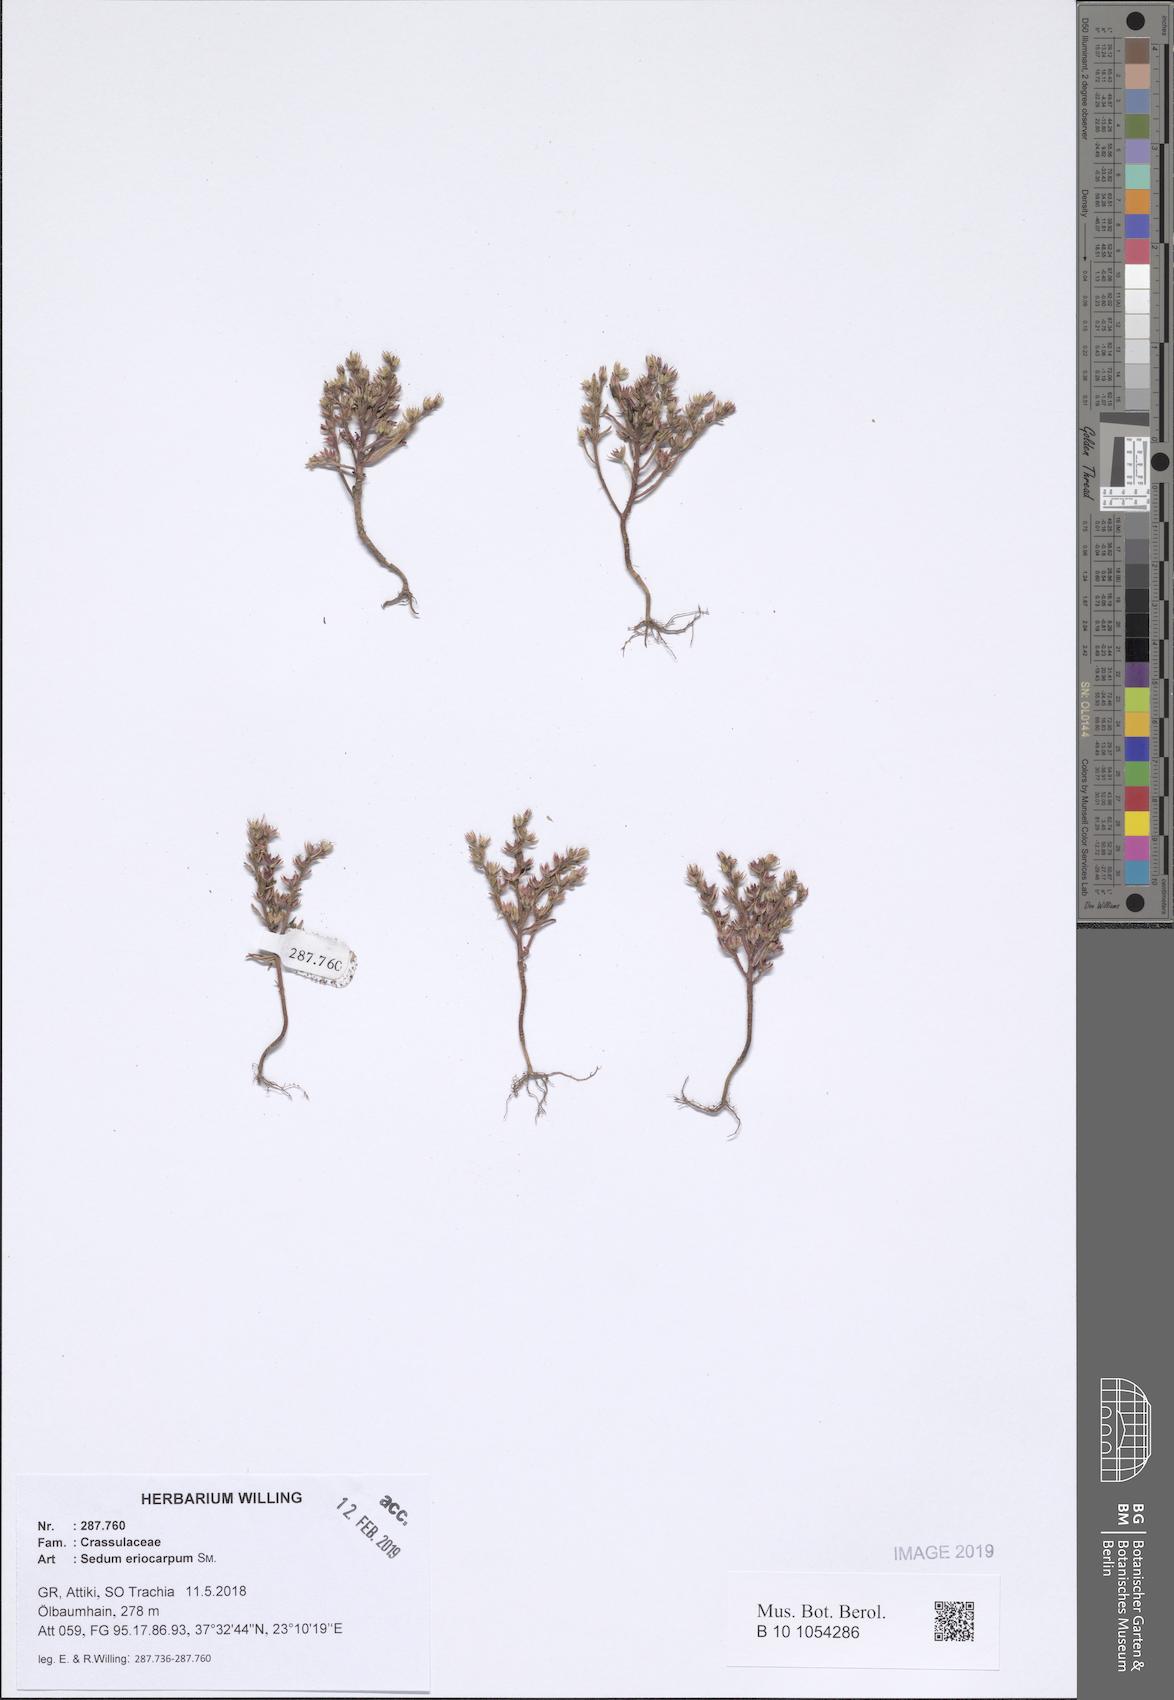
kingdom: Plantae
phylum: Tracheophyta
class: Magnoliopsida
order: Saxifragales
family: Crassulaceae
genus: Sedum
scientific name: Sedum eriocarpum
